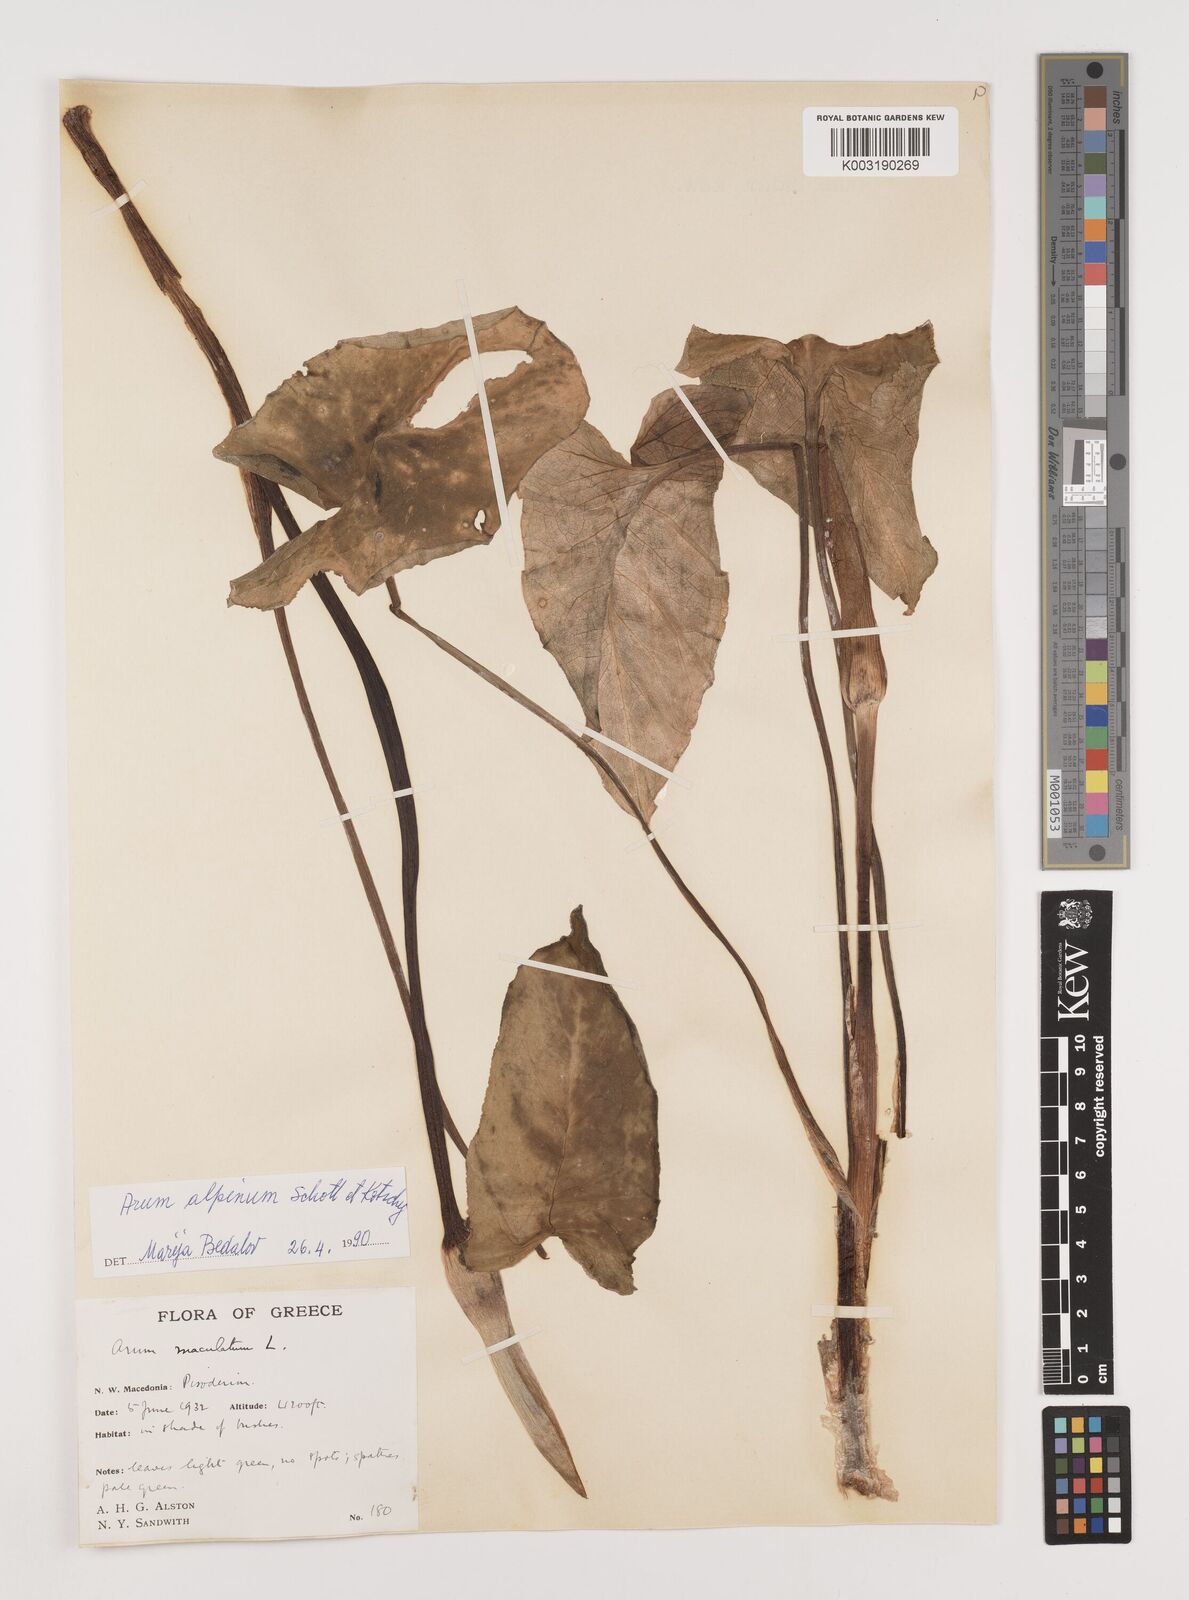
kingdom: Plantae
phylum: Tracheophyta
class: Liliopsida
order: Alismatales
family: Araceae
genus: Arum
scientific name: Arum cylindraceum
